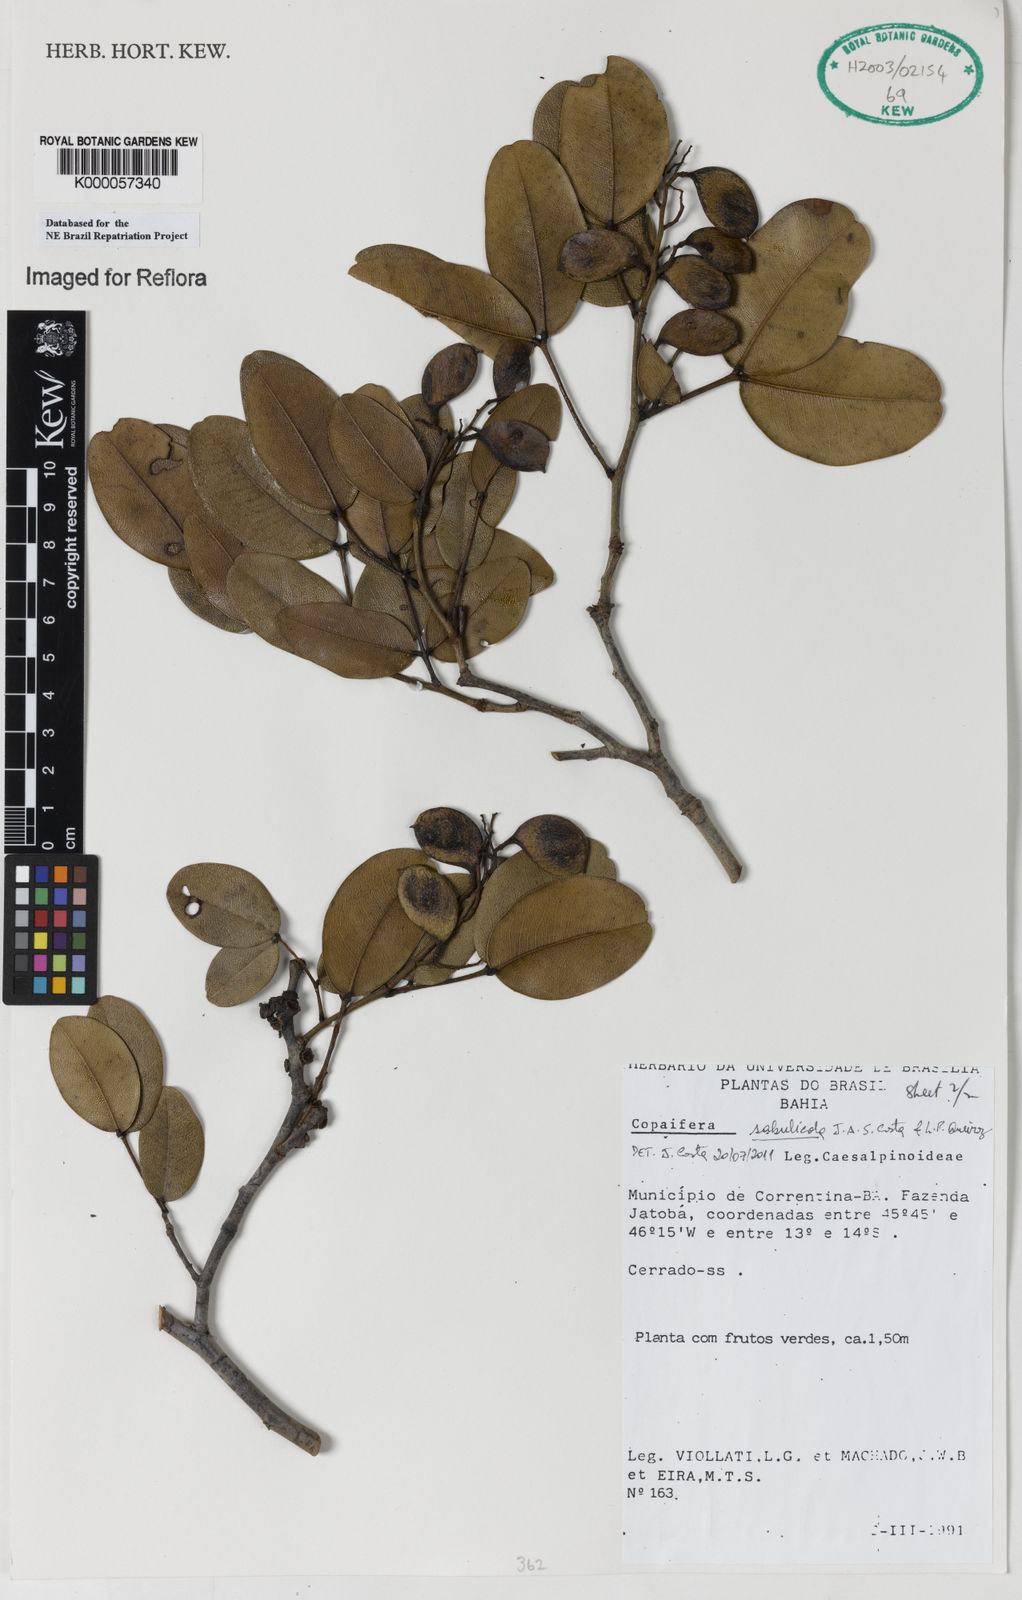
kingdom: Plantae
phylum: Tracheophyta
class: Magnoliopsida
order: Fabales
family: Fabaceae
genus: Copaifera
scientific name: Copaifera
